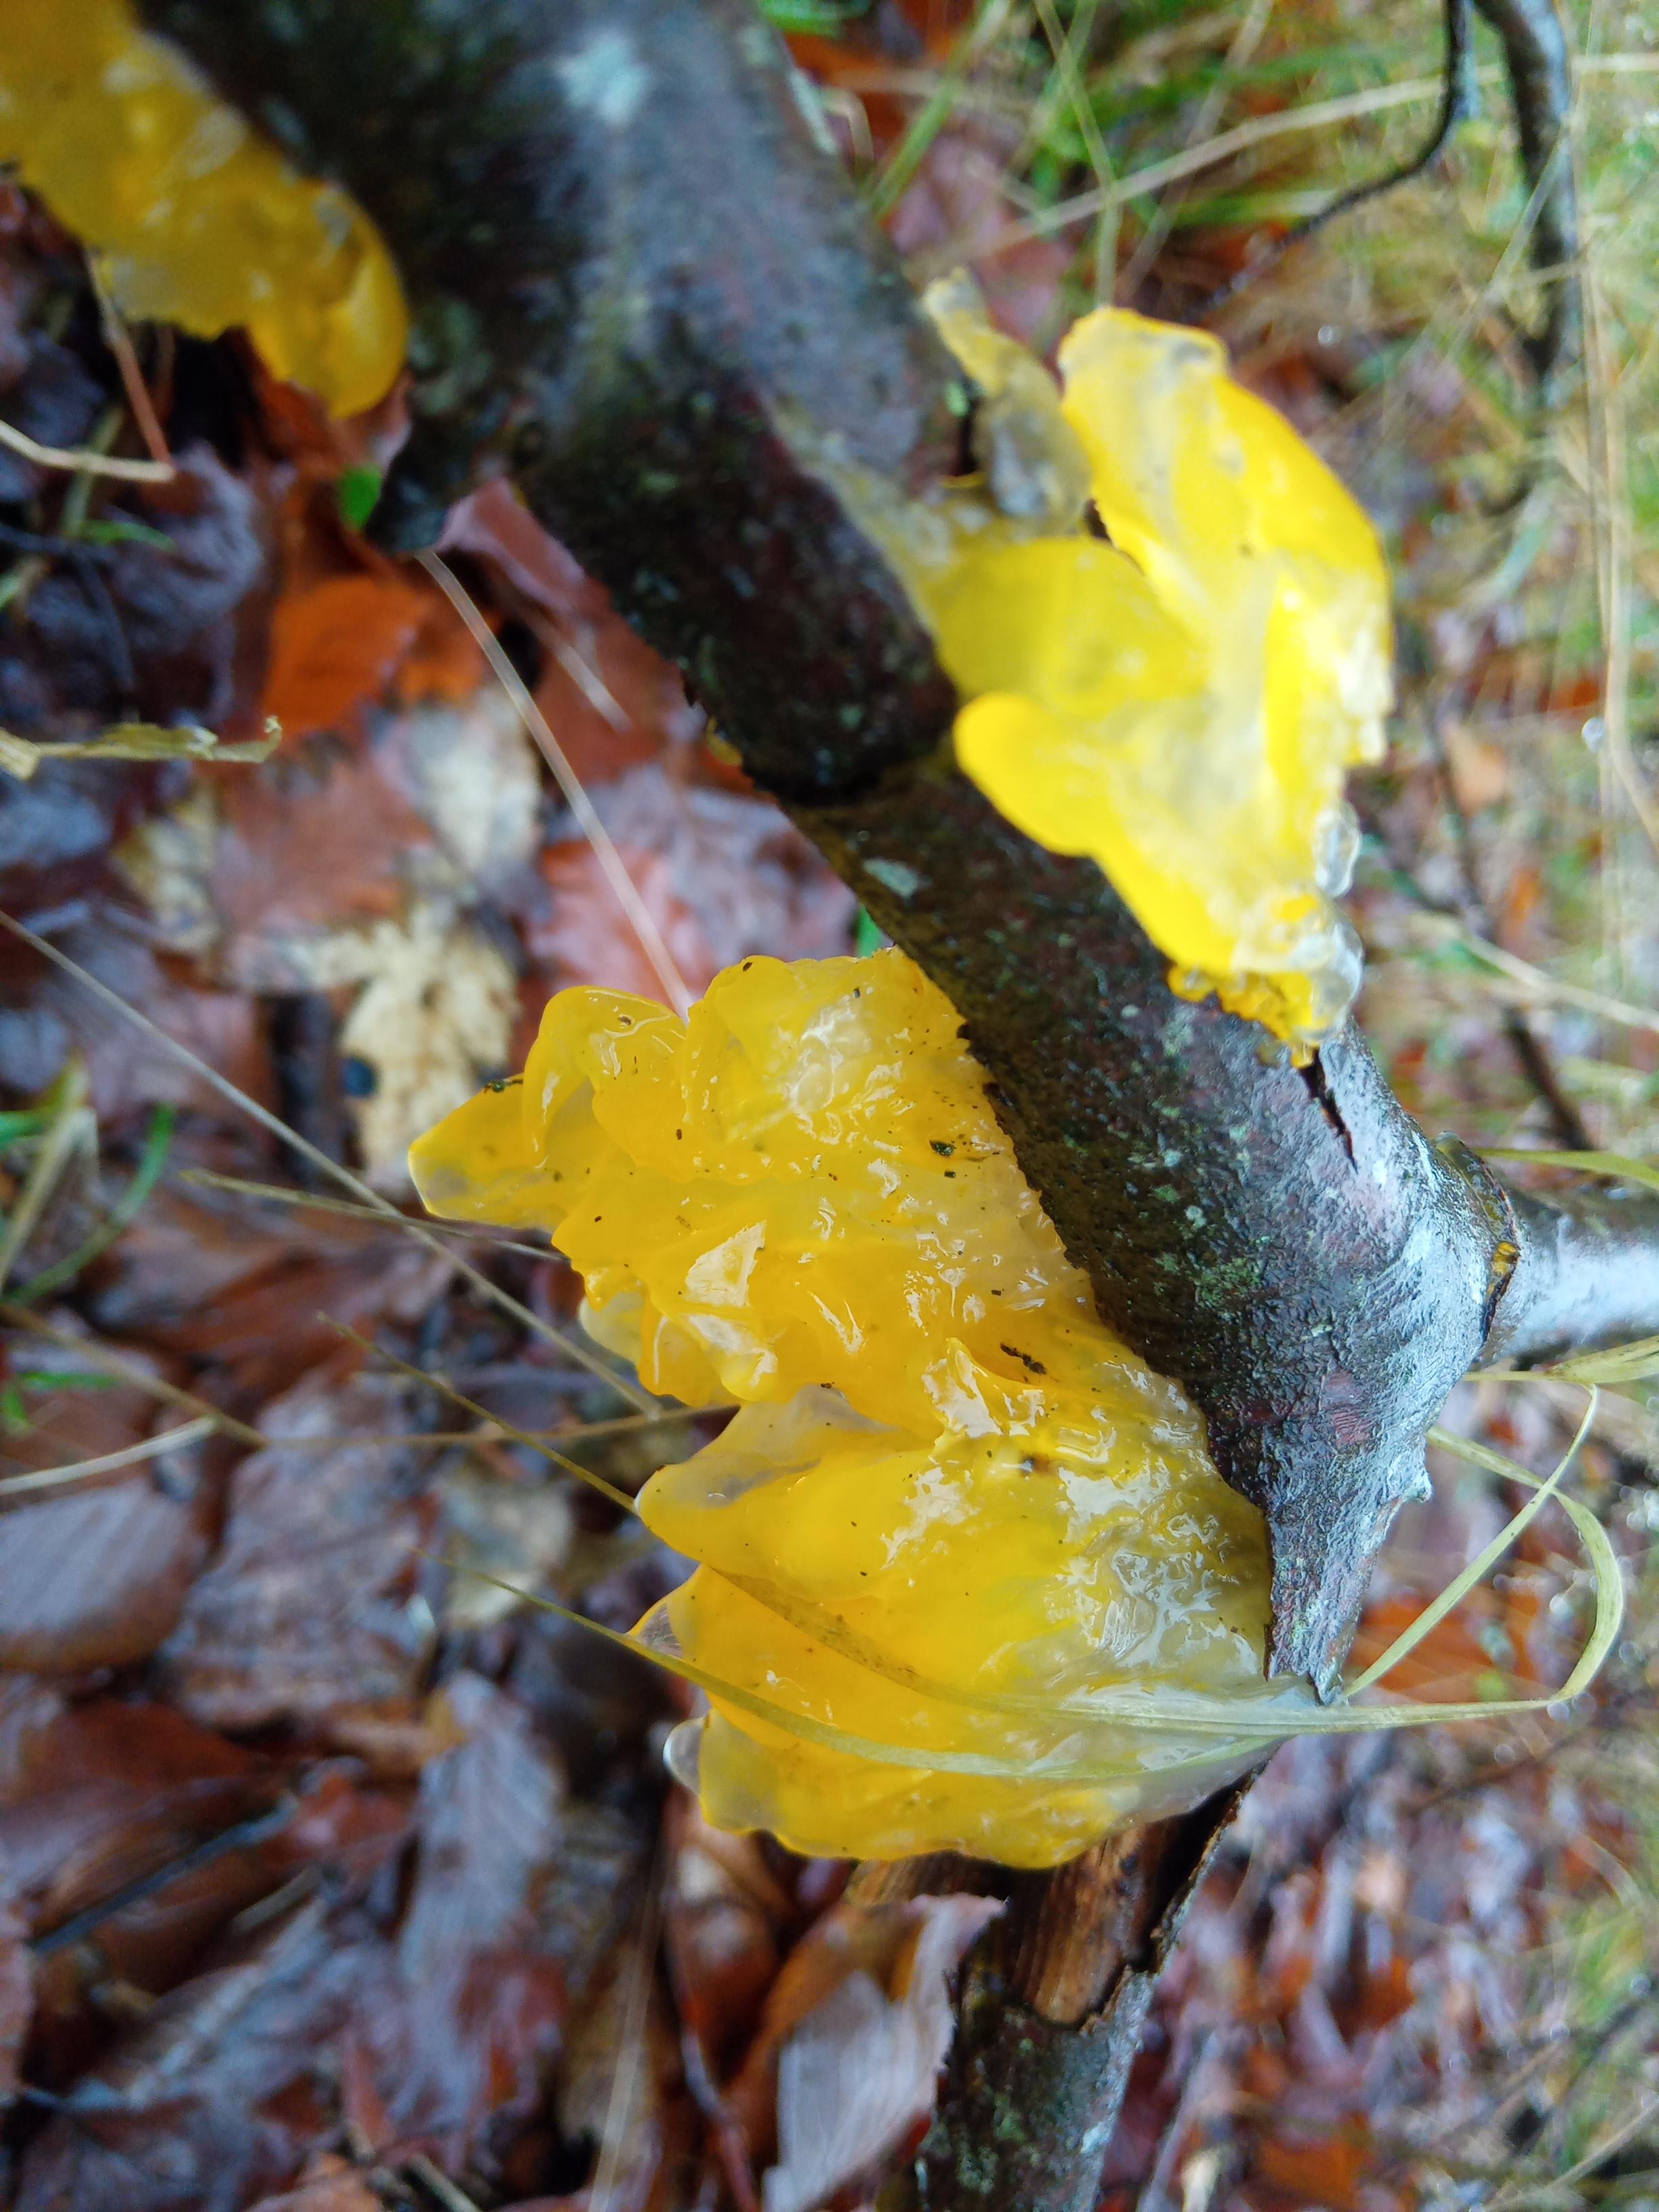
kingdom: Fungi
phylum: Basidiomycota
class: Tremellomycetes
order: Tremellales
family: Tremellaceae
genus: Tremella
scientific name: Tremella mesenterica
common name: gul bævresvamp
